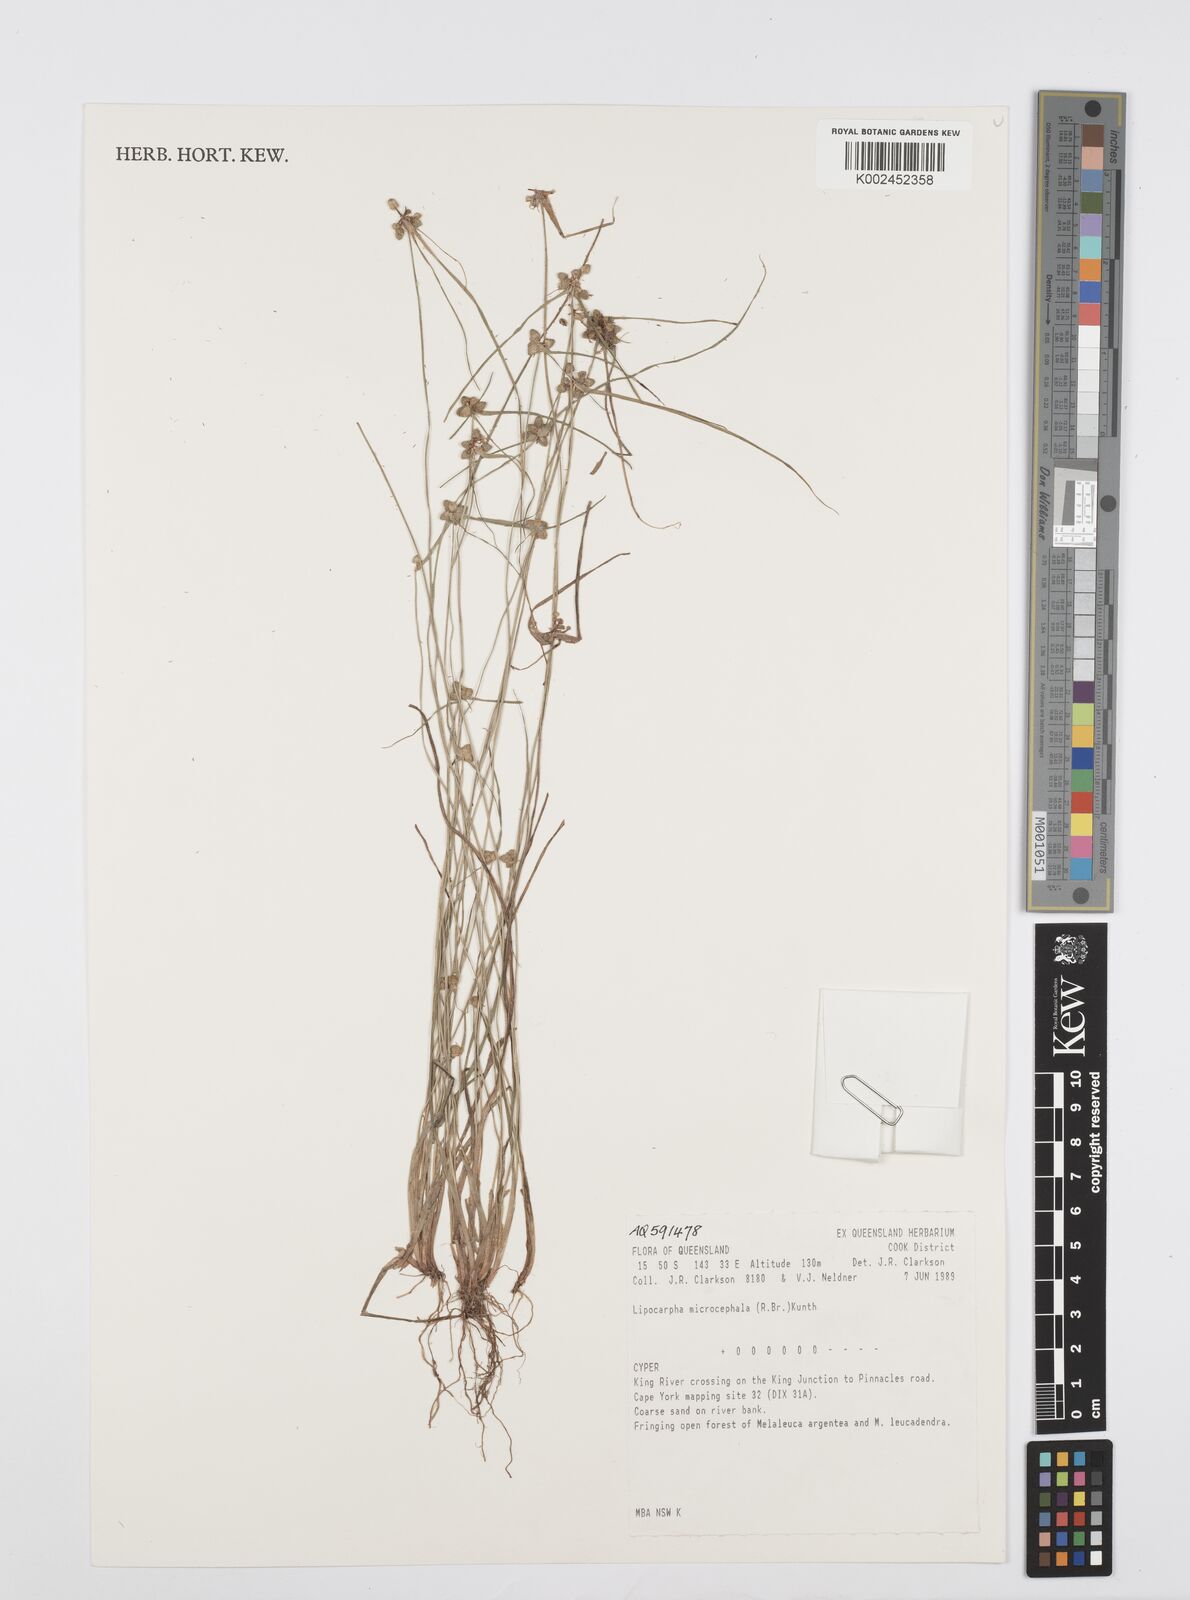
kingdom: Plantae
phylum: Tracheophyta
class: Liliopsida
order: Poales
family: Cyperaceae
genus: Cyperus
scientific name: Cyperus microcephalus
